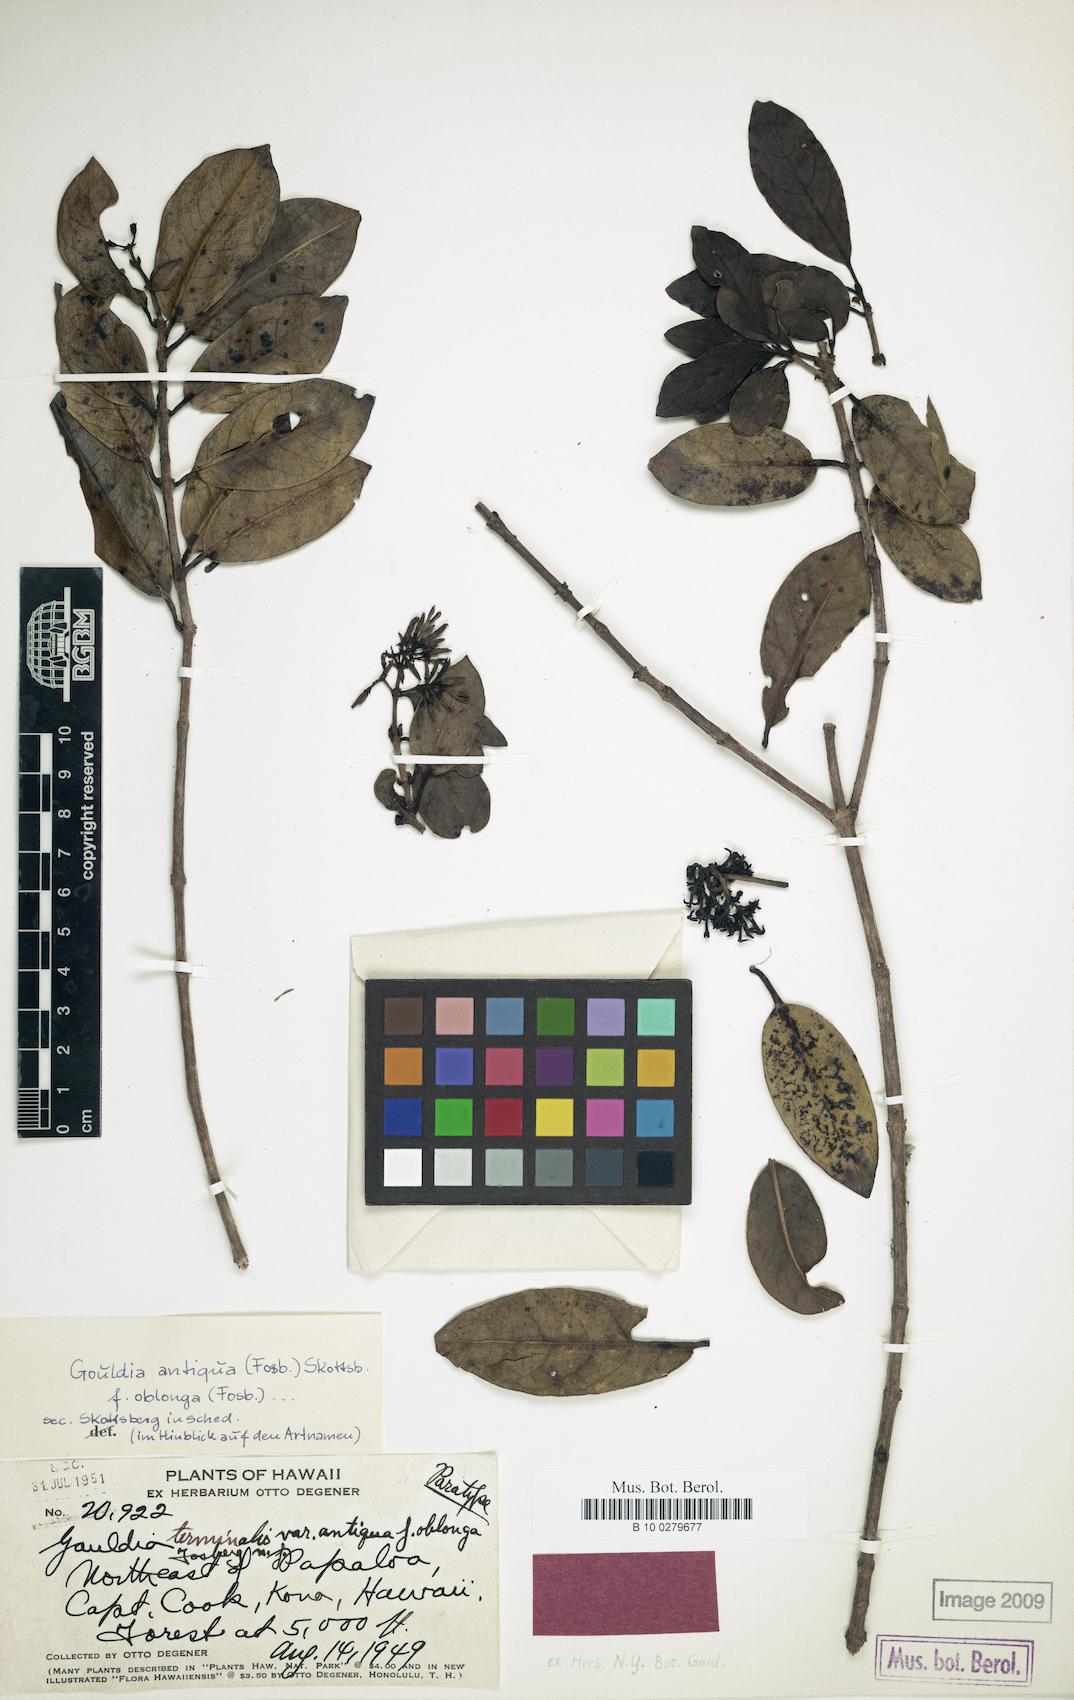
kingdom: Plantae
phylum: Tracheophyta
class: Magnoliopsida
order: Gentianales
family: Rubiaceae
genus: Kadua
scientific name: Kadua affinis
